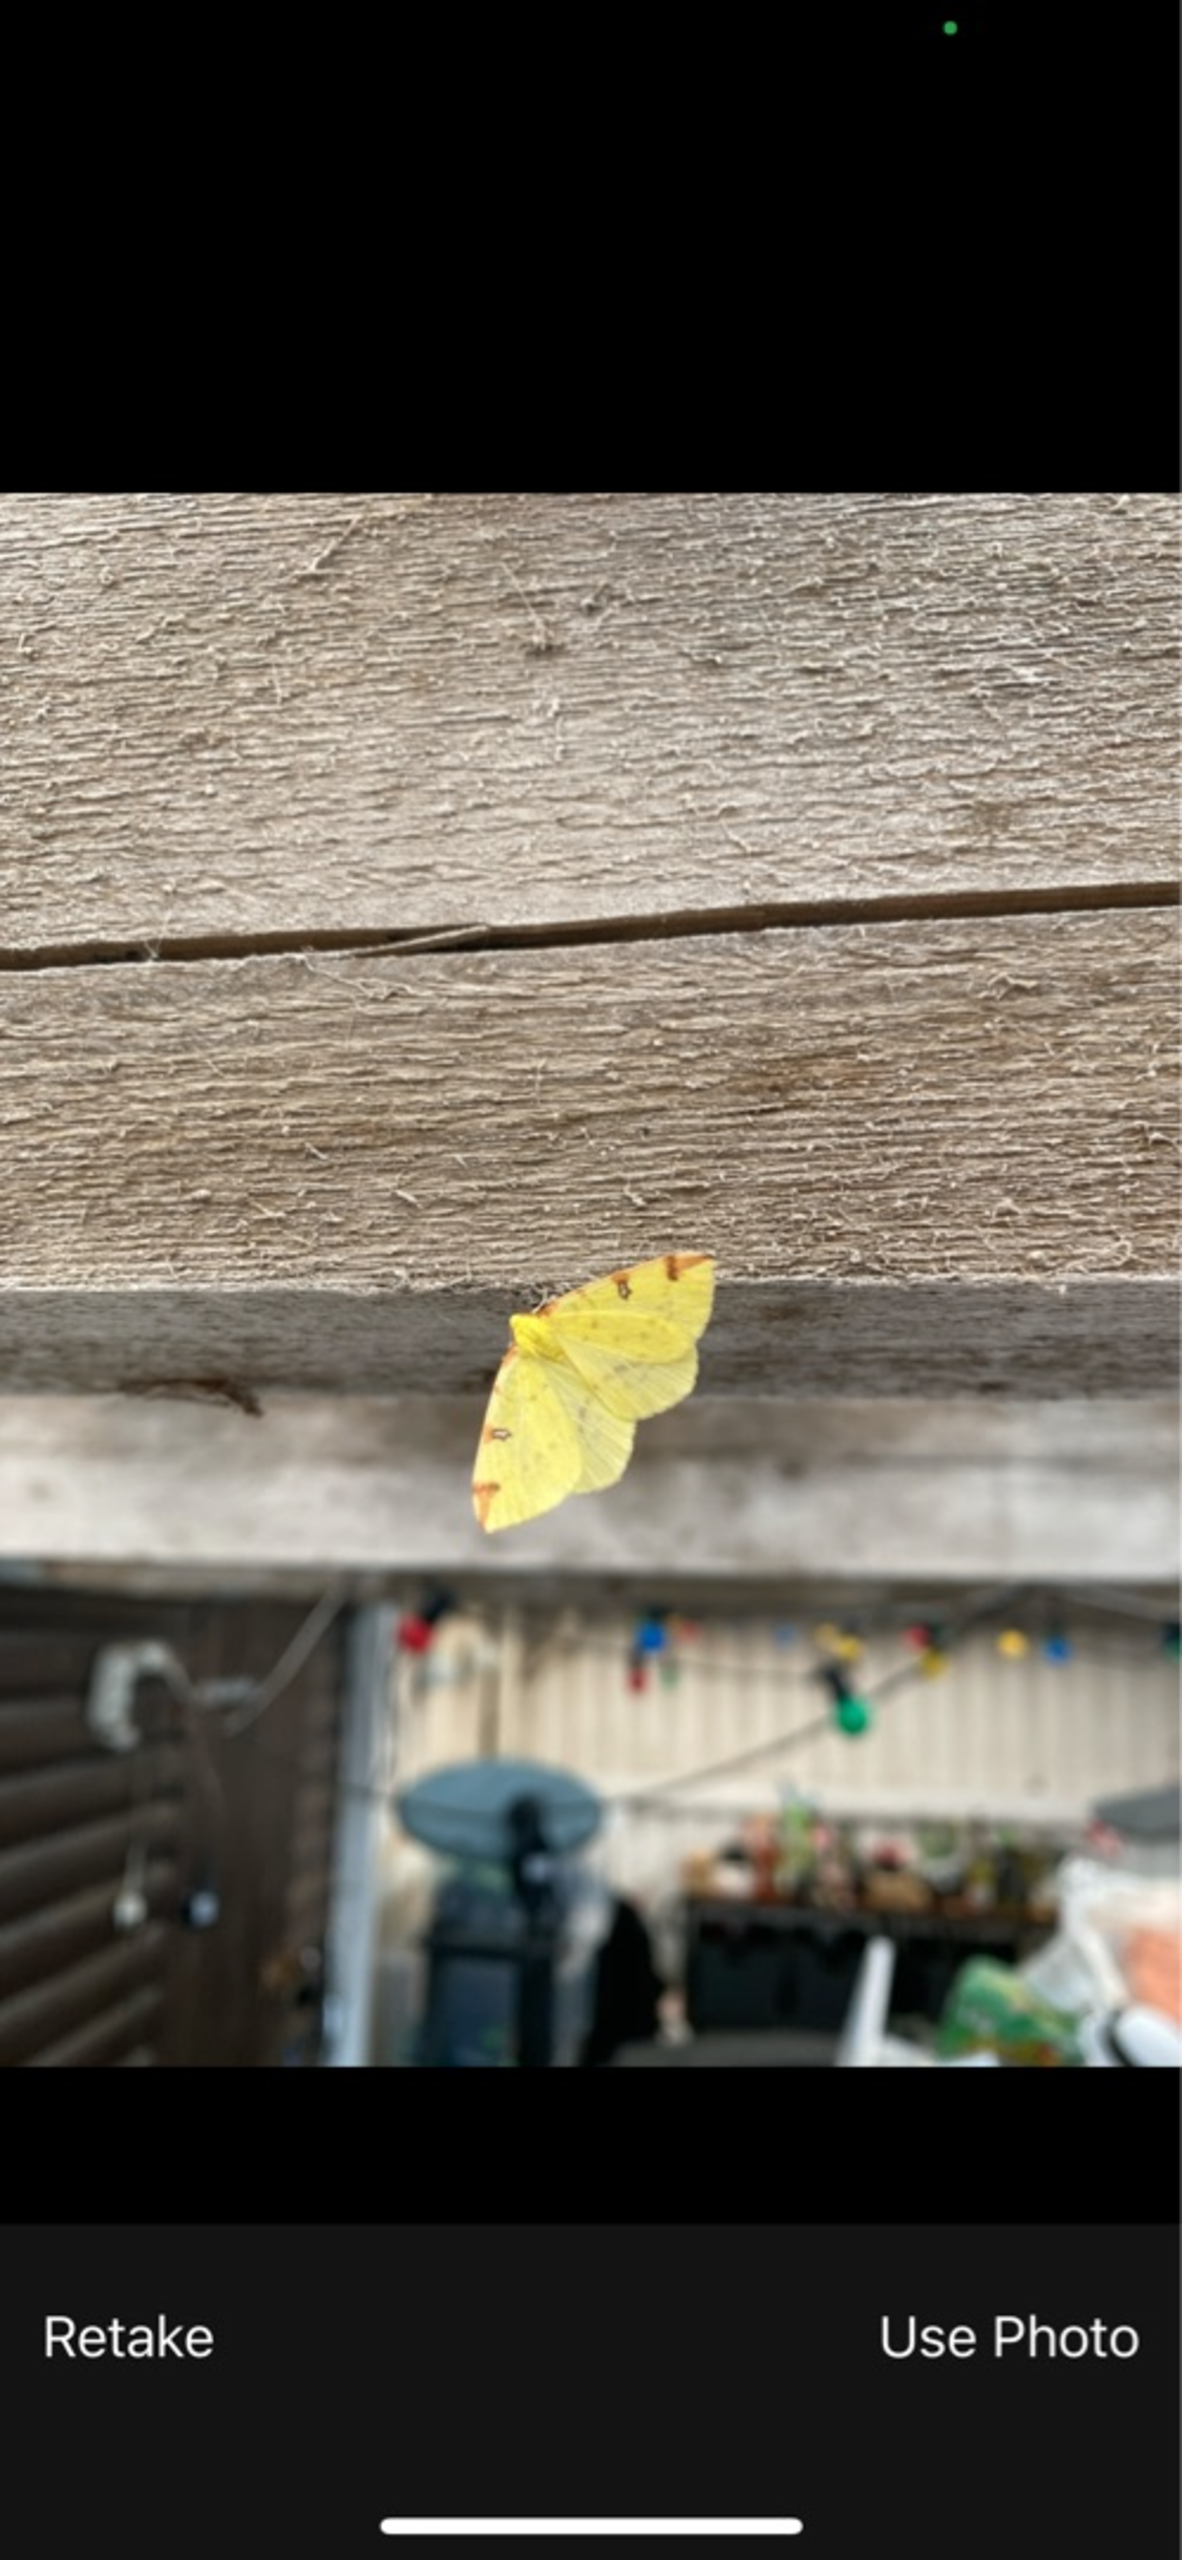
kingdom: Animalia
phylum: Arthropoda
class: Insecta
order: Lepidoptera
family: Geometridae
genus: Opisthograptis
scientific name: Opisthograptis luteolata
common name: Citronmåler
